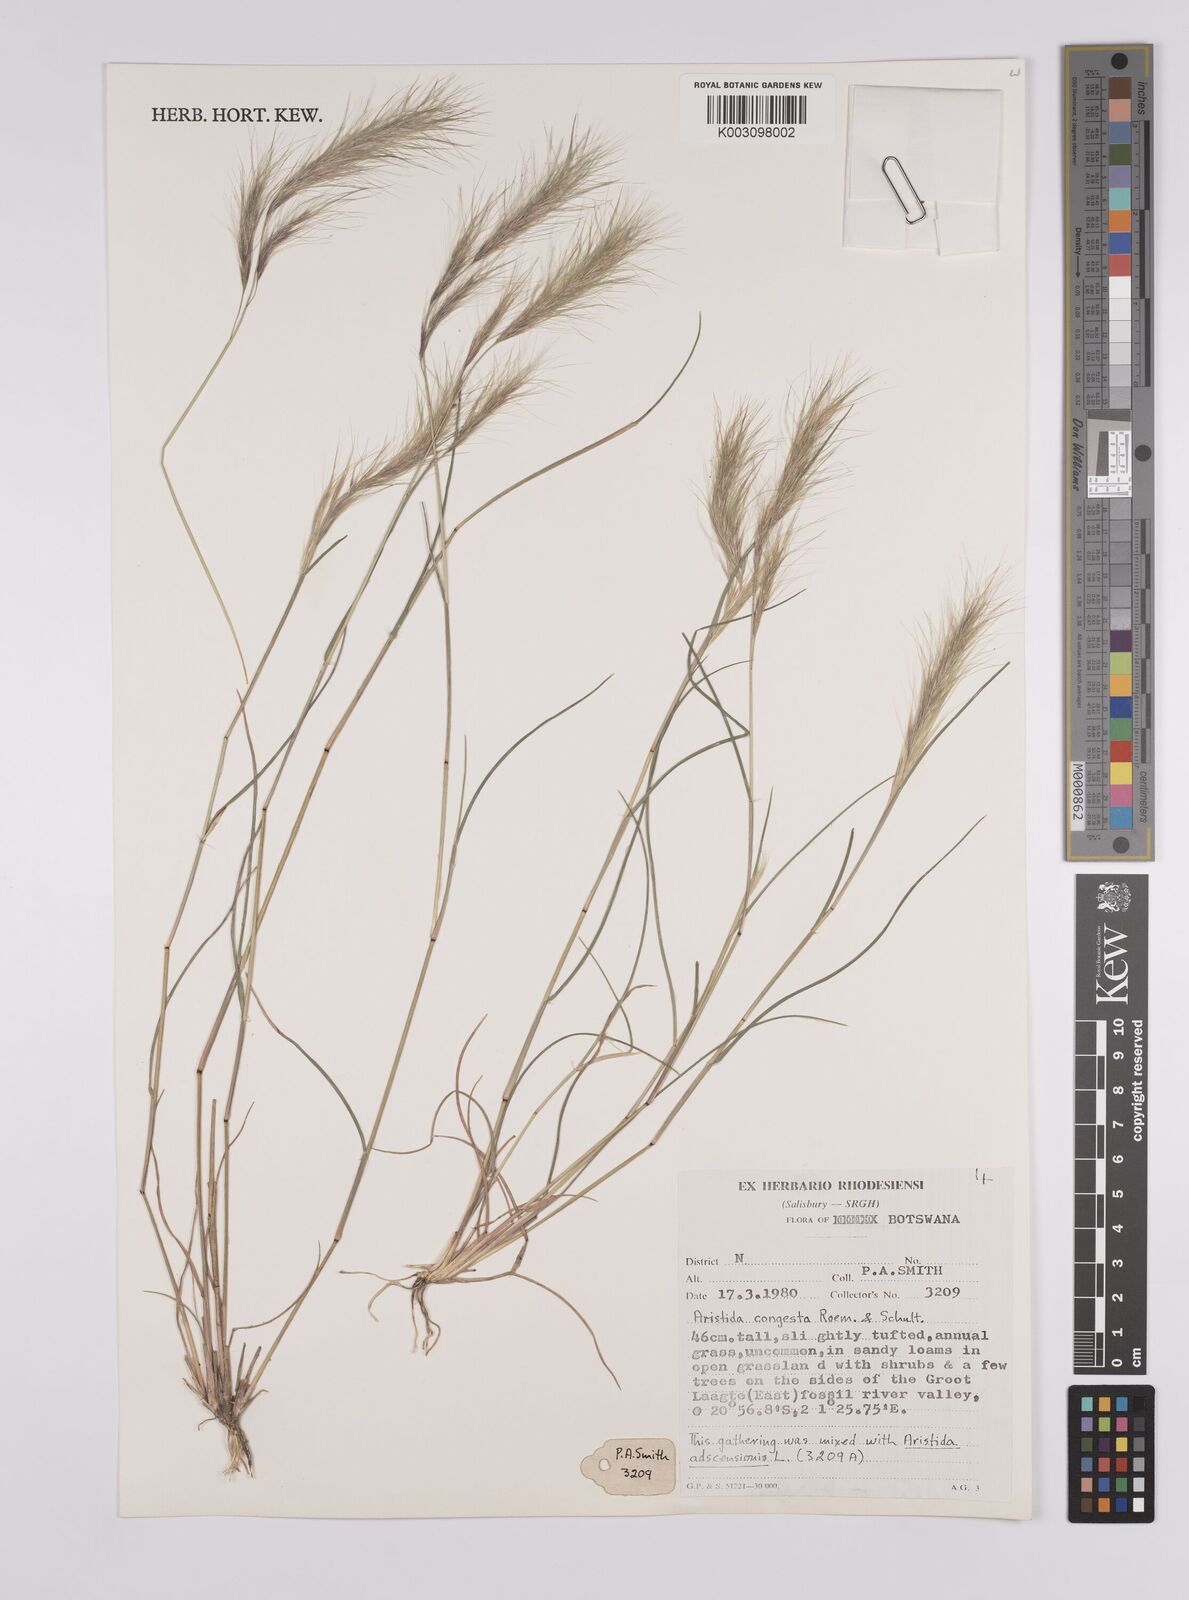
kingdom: Plantae
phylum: Tracheophyta
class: Liliopsida
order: Poales
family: Poaceae
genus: Aristida
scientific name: Aristida congesta
